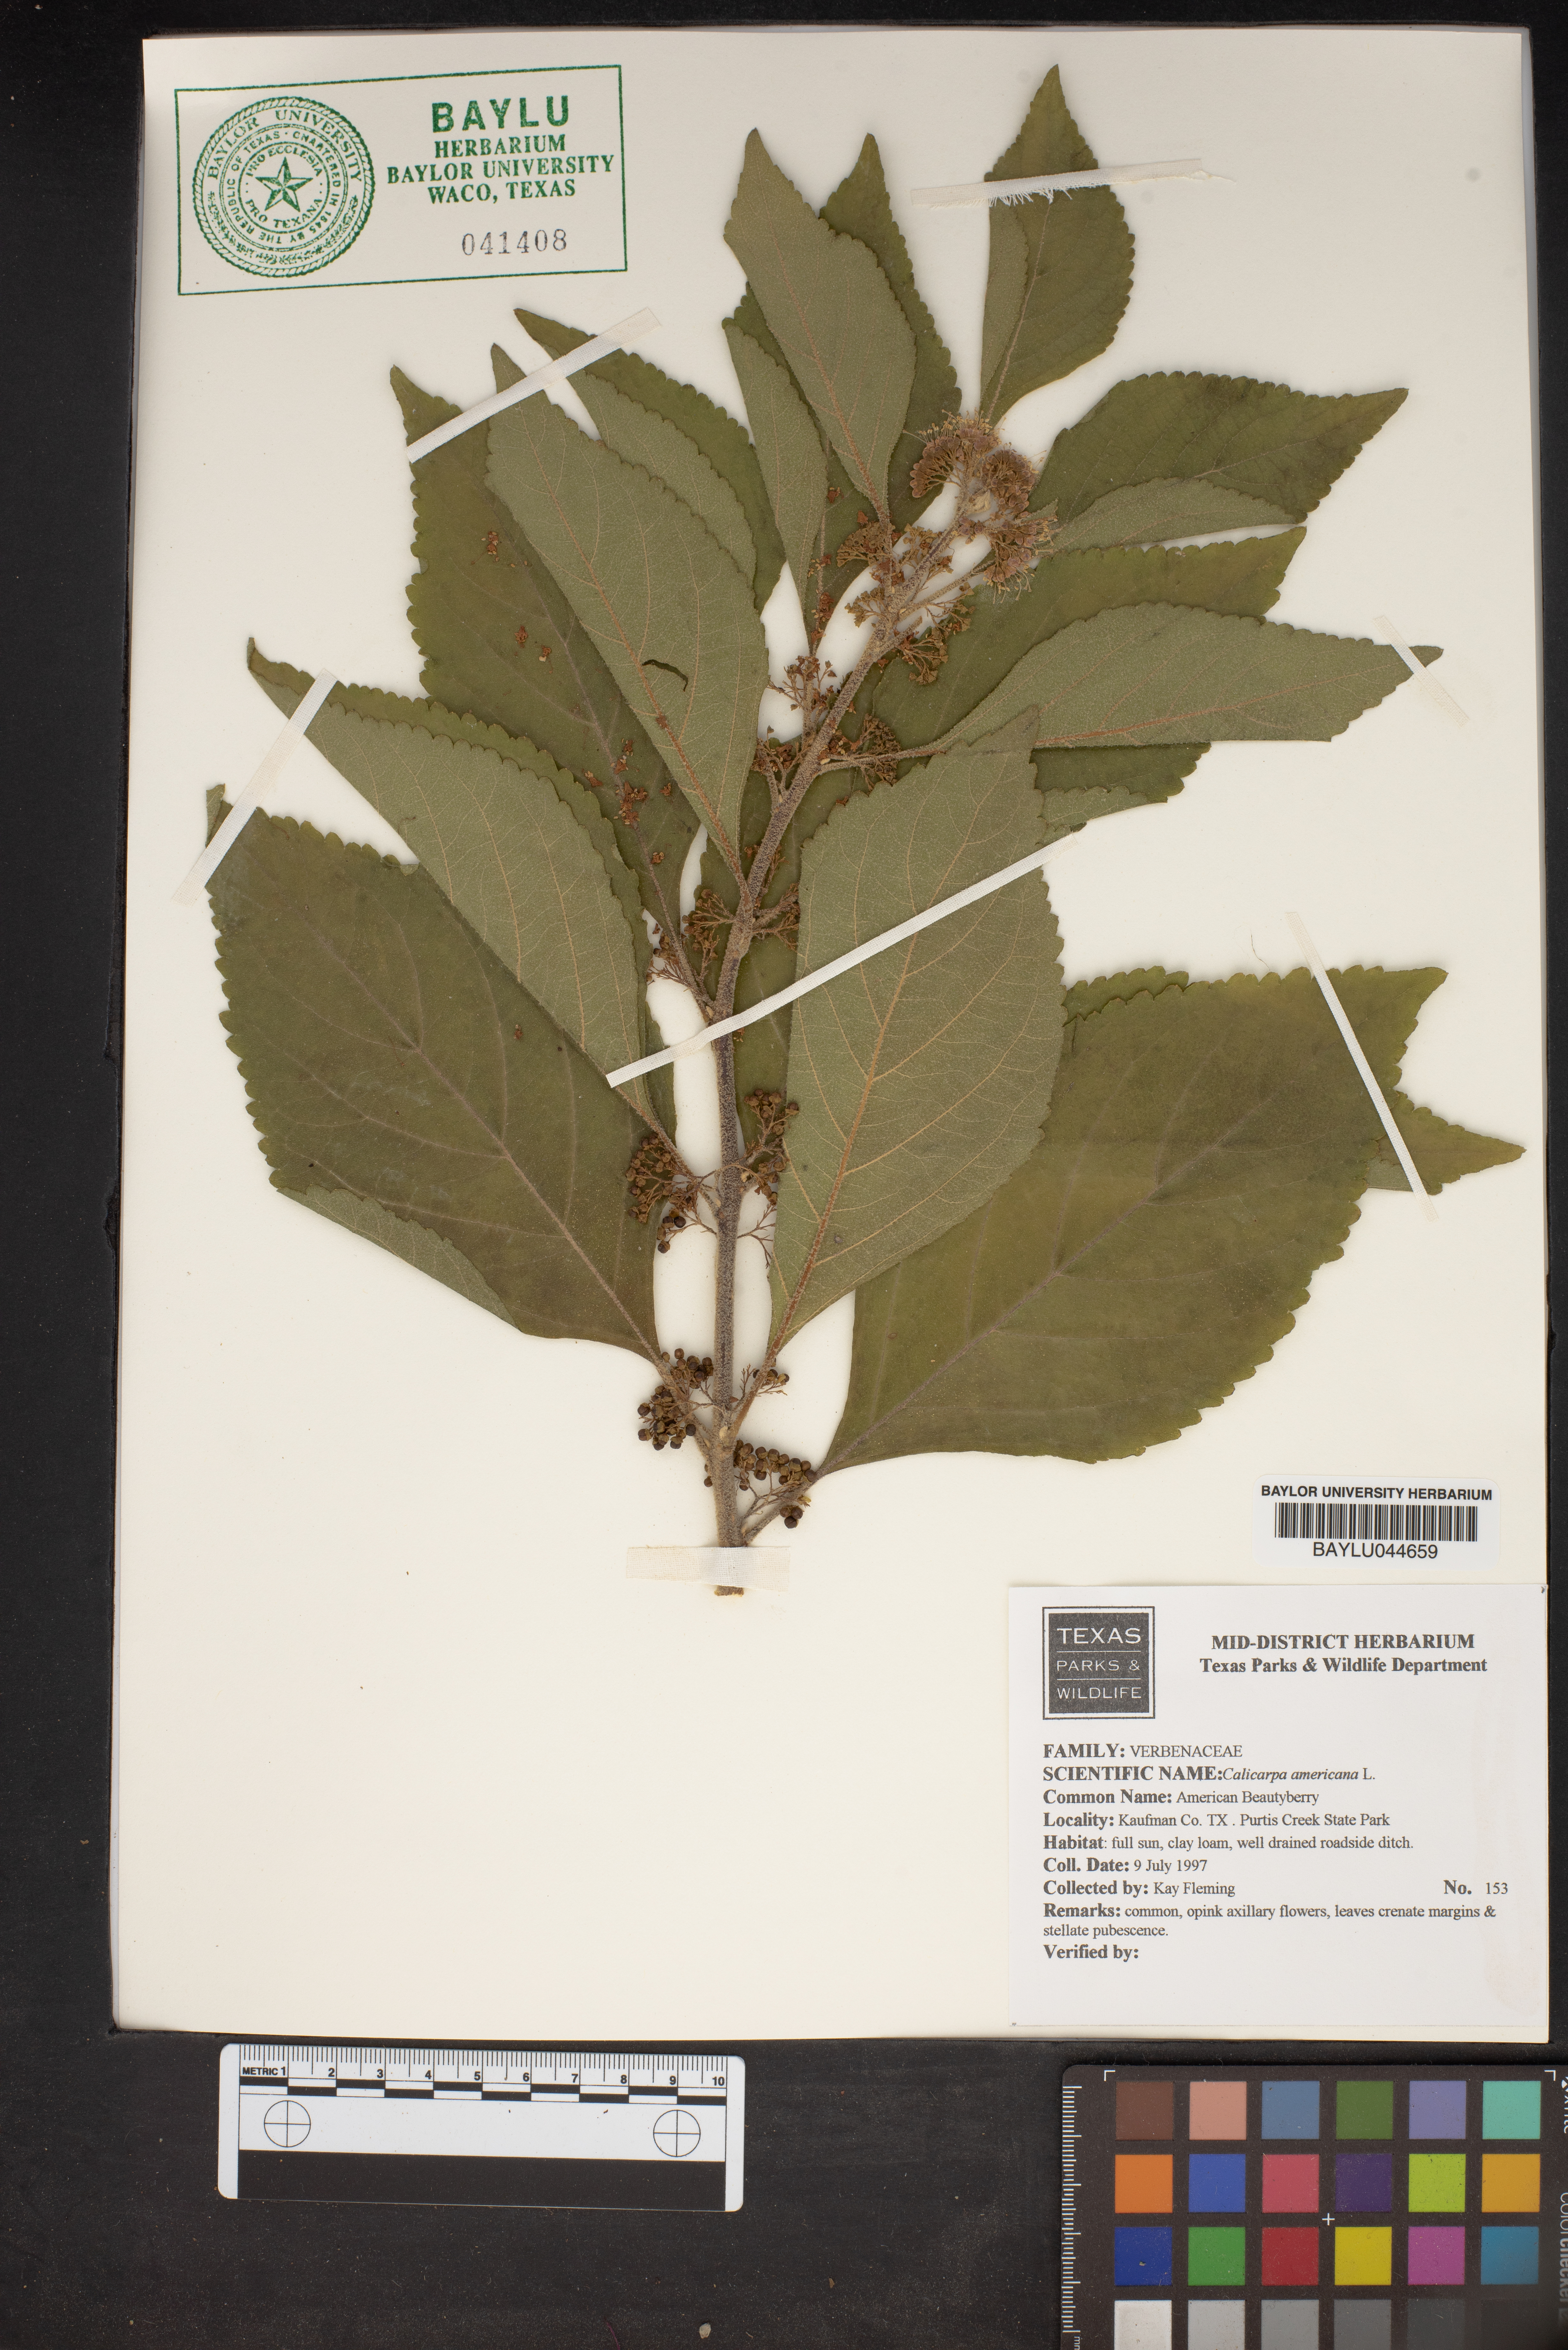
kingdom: Plantae
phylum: Tracheophyta
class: Magnoliopsida
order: Lamiales
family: Lamiaceae
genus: Callicarpa
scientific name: Callicarpa americana
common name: American beautyberry
